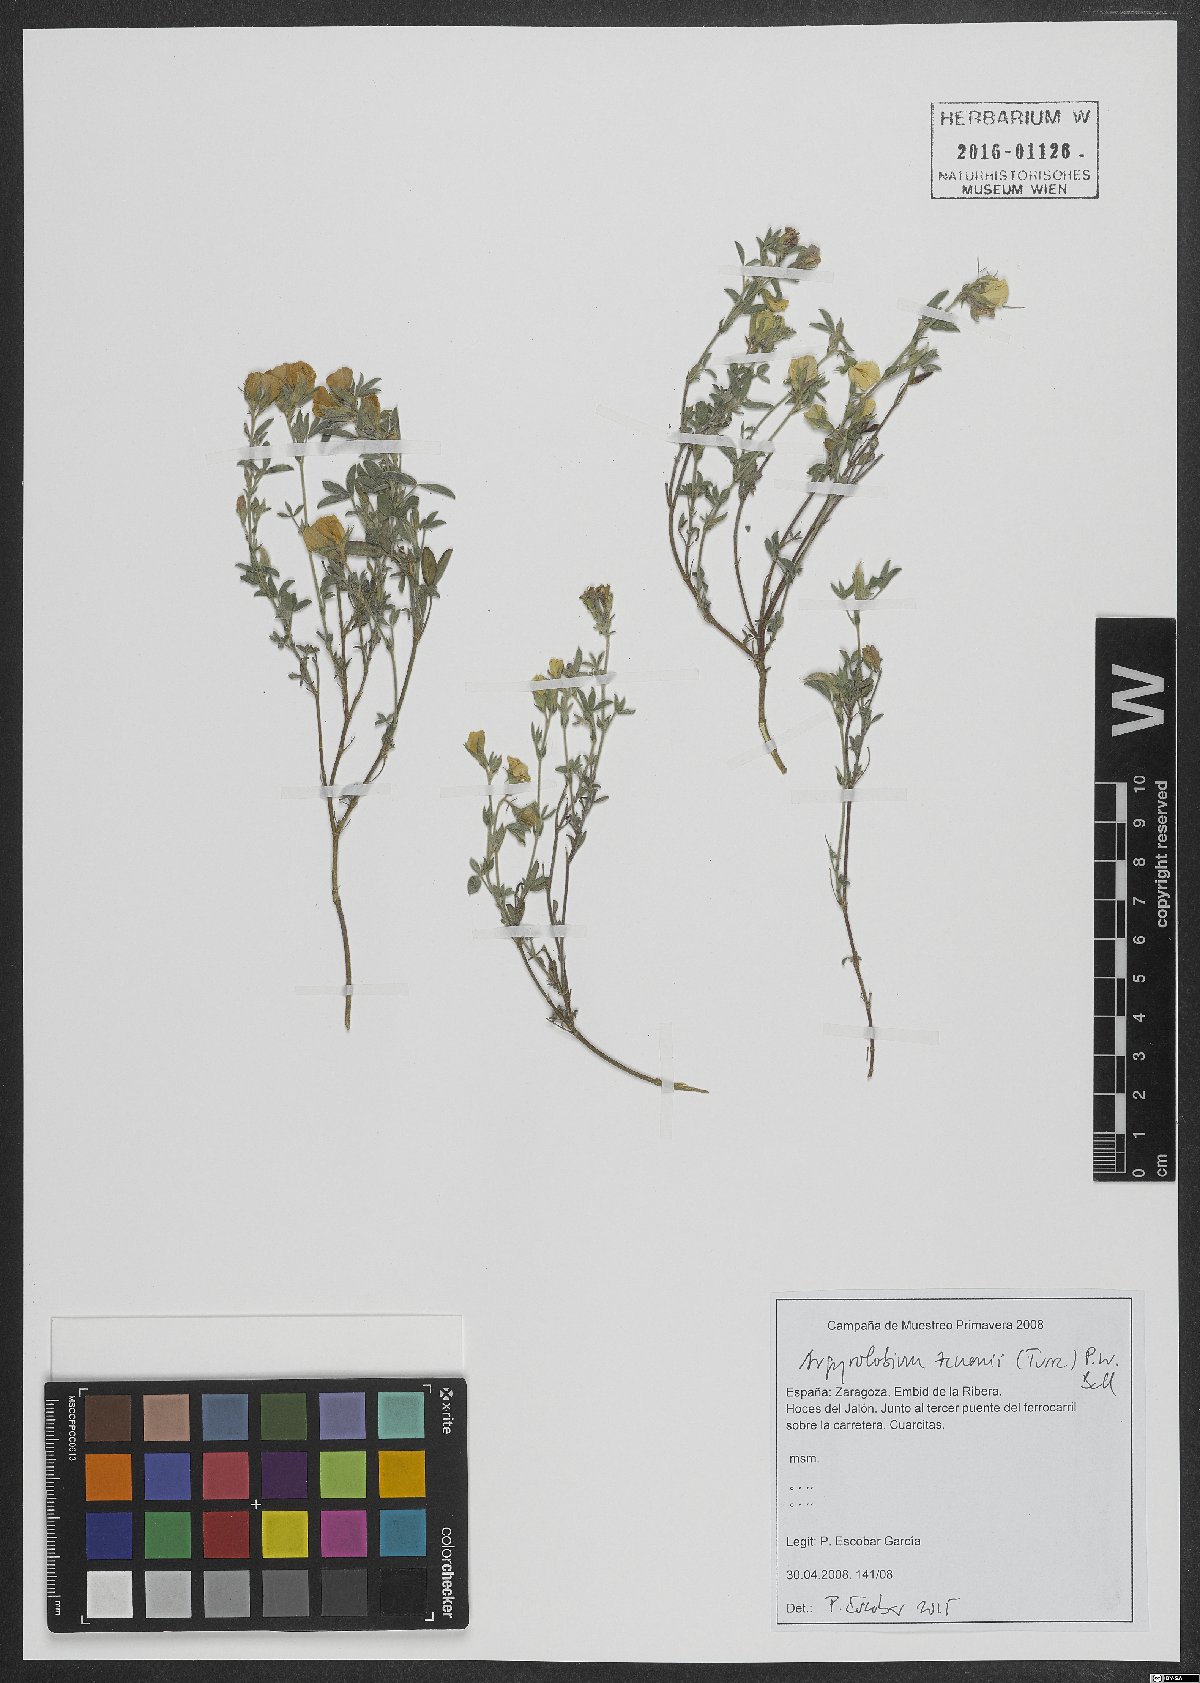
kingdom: Plantae
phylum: Tracheophyta
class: Magnoliopsida
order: Fabales
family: Fabaceae
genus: Argyrolobium
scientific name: Argyrolobium zanonii
